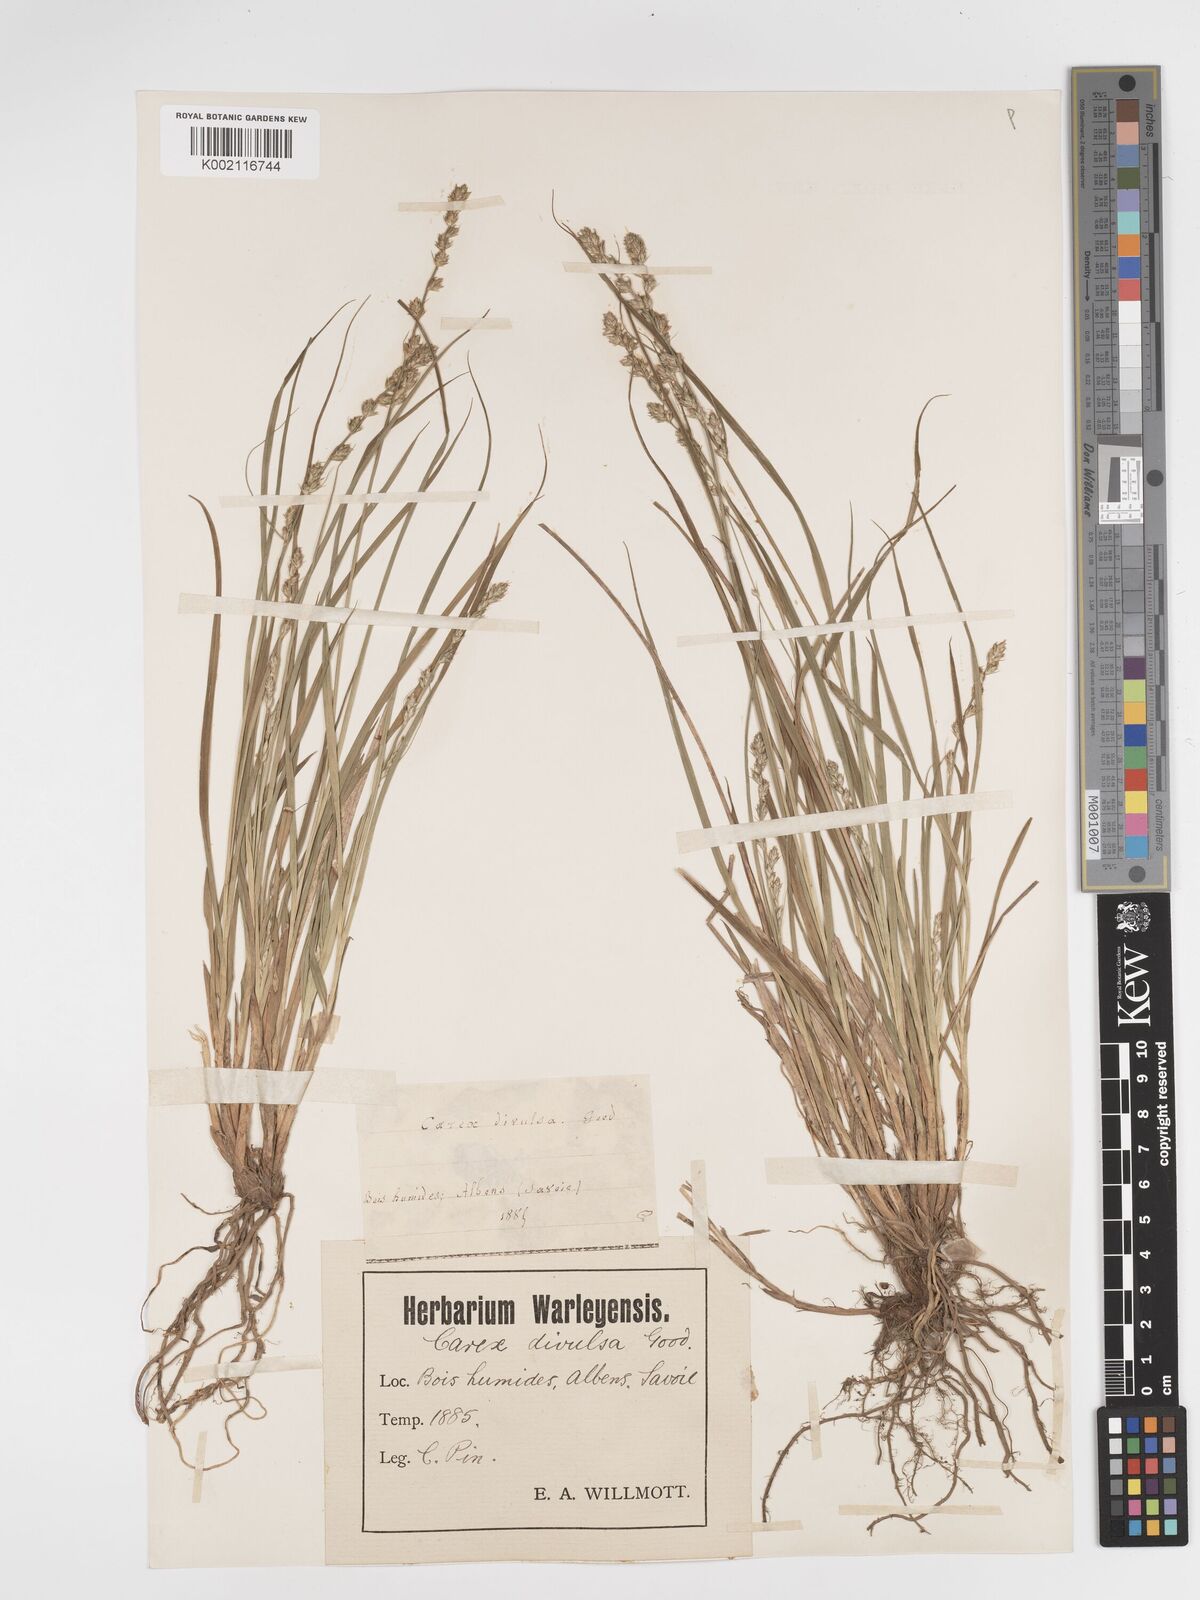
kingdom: Plantae
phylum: Tracheophyta
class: Liliopsida
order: Poales
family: Cyperaceae
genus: Carex
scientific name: Carex divulsa
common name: Grassland sedge
